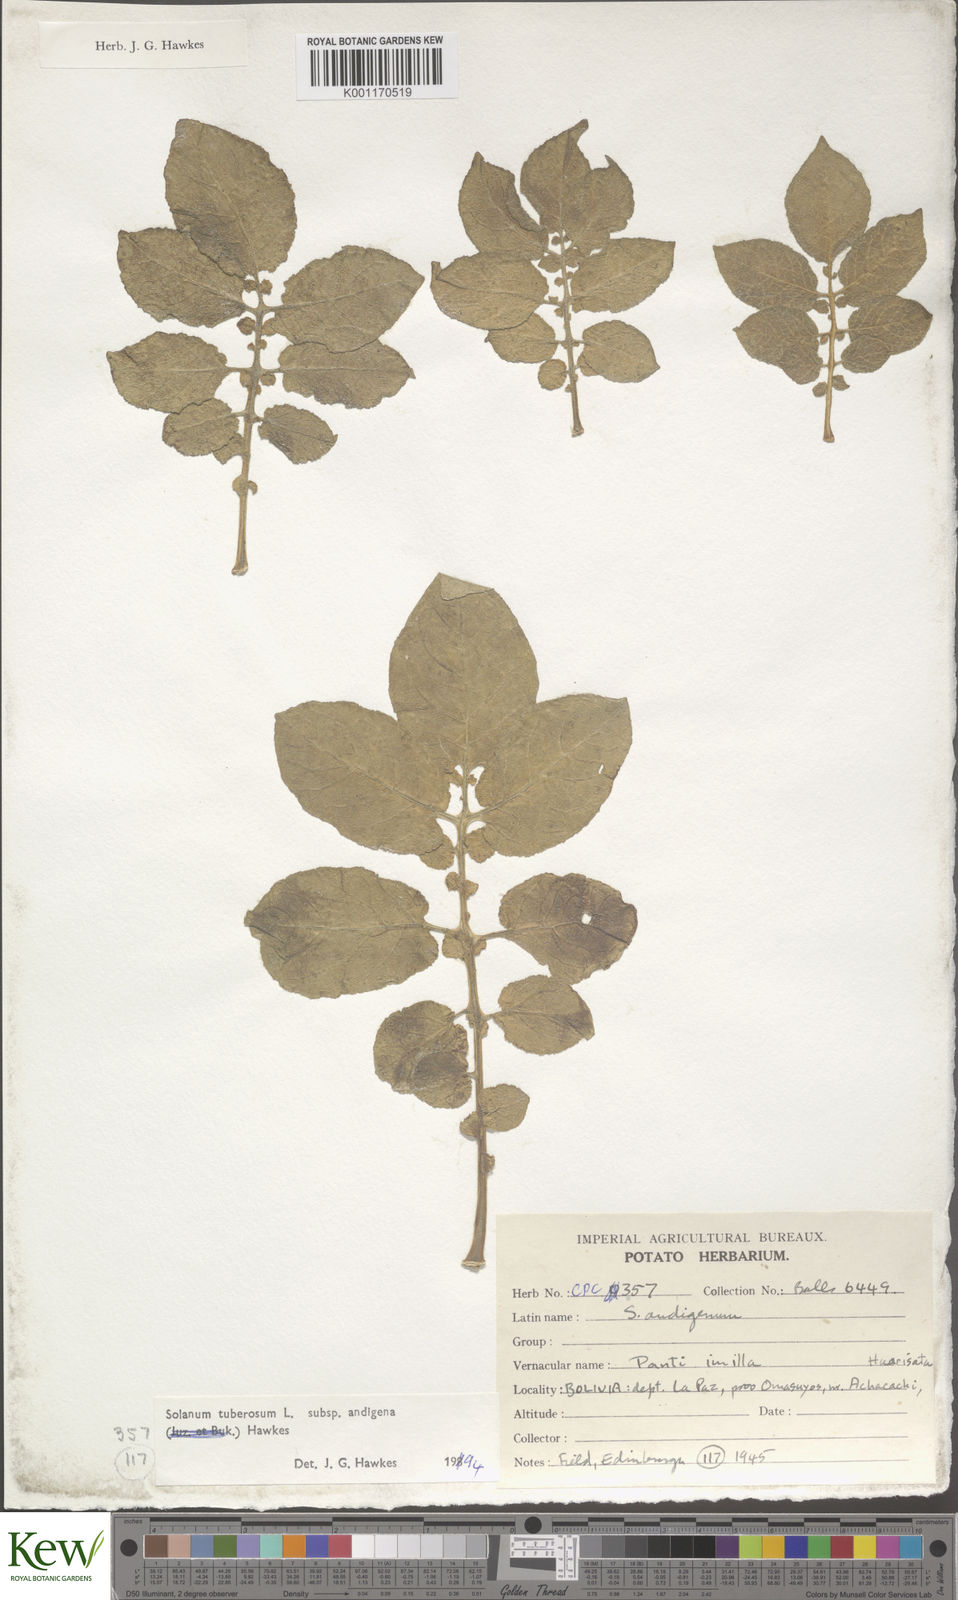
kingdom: Plantae
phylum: Tracheophyta
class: Magnoliopsida
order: Solanales
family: Solanaceae
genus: Solanum
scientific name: Solanum tuberosum
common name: Potato
